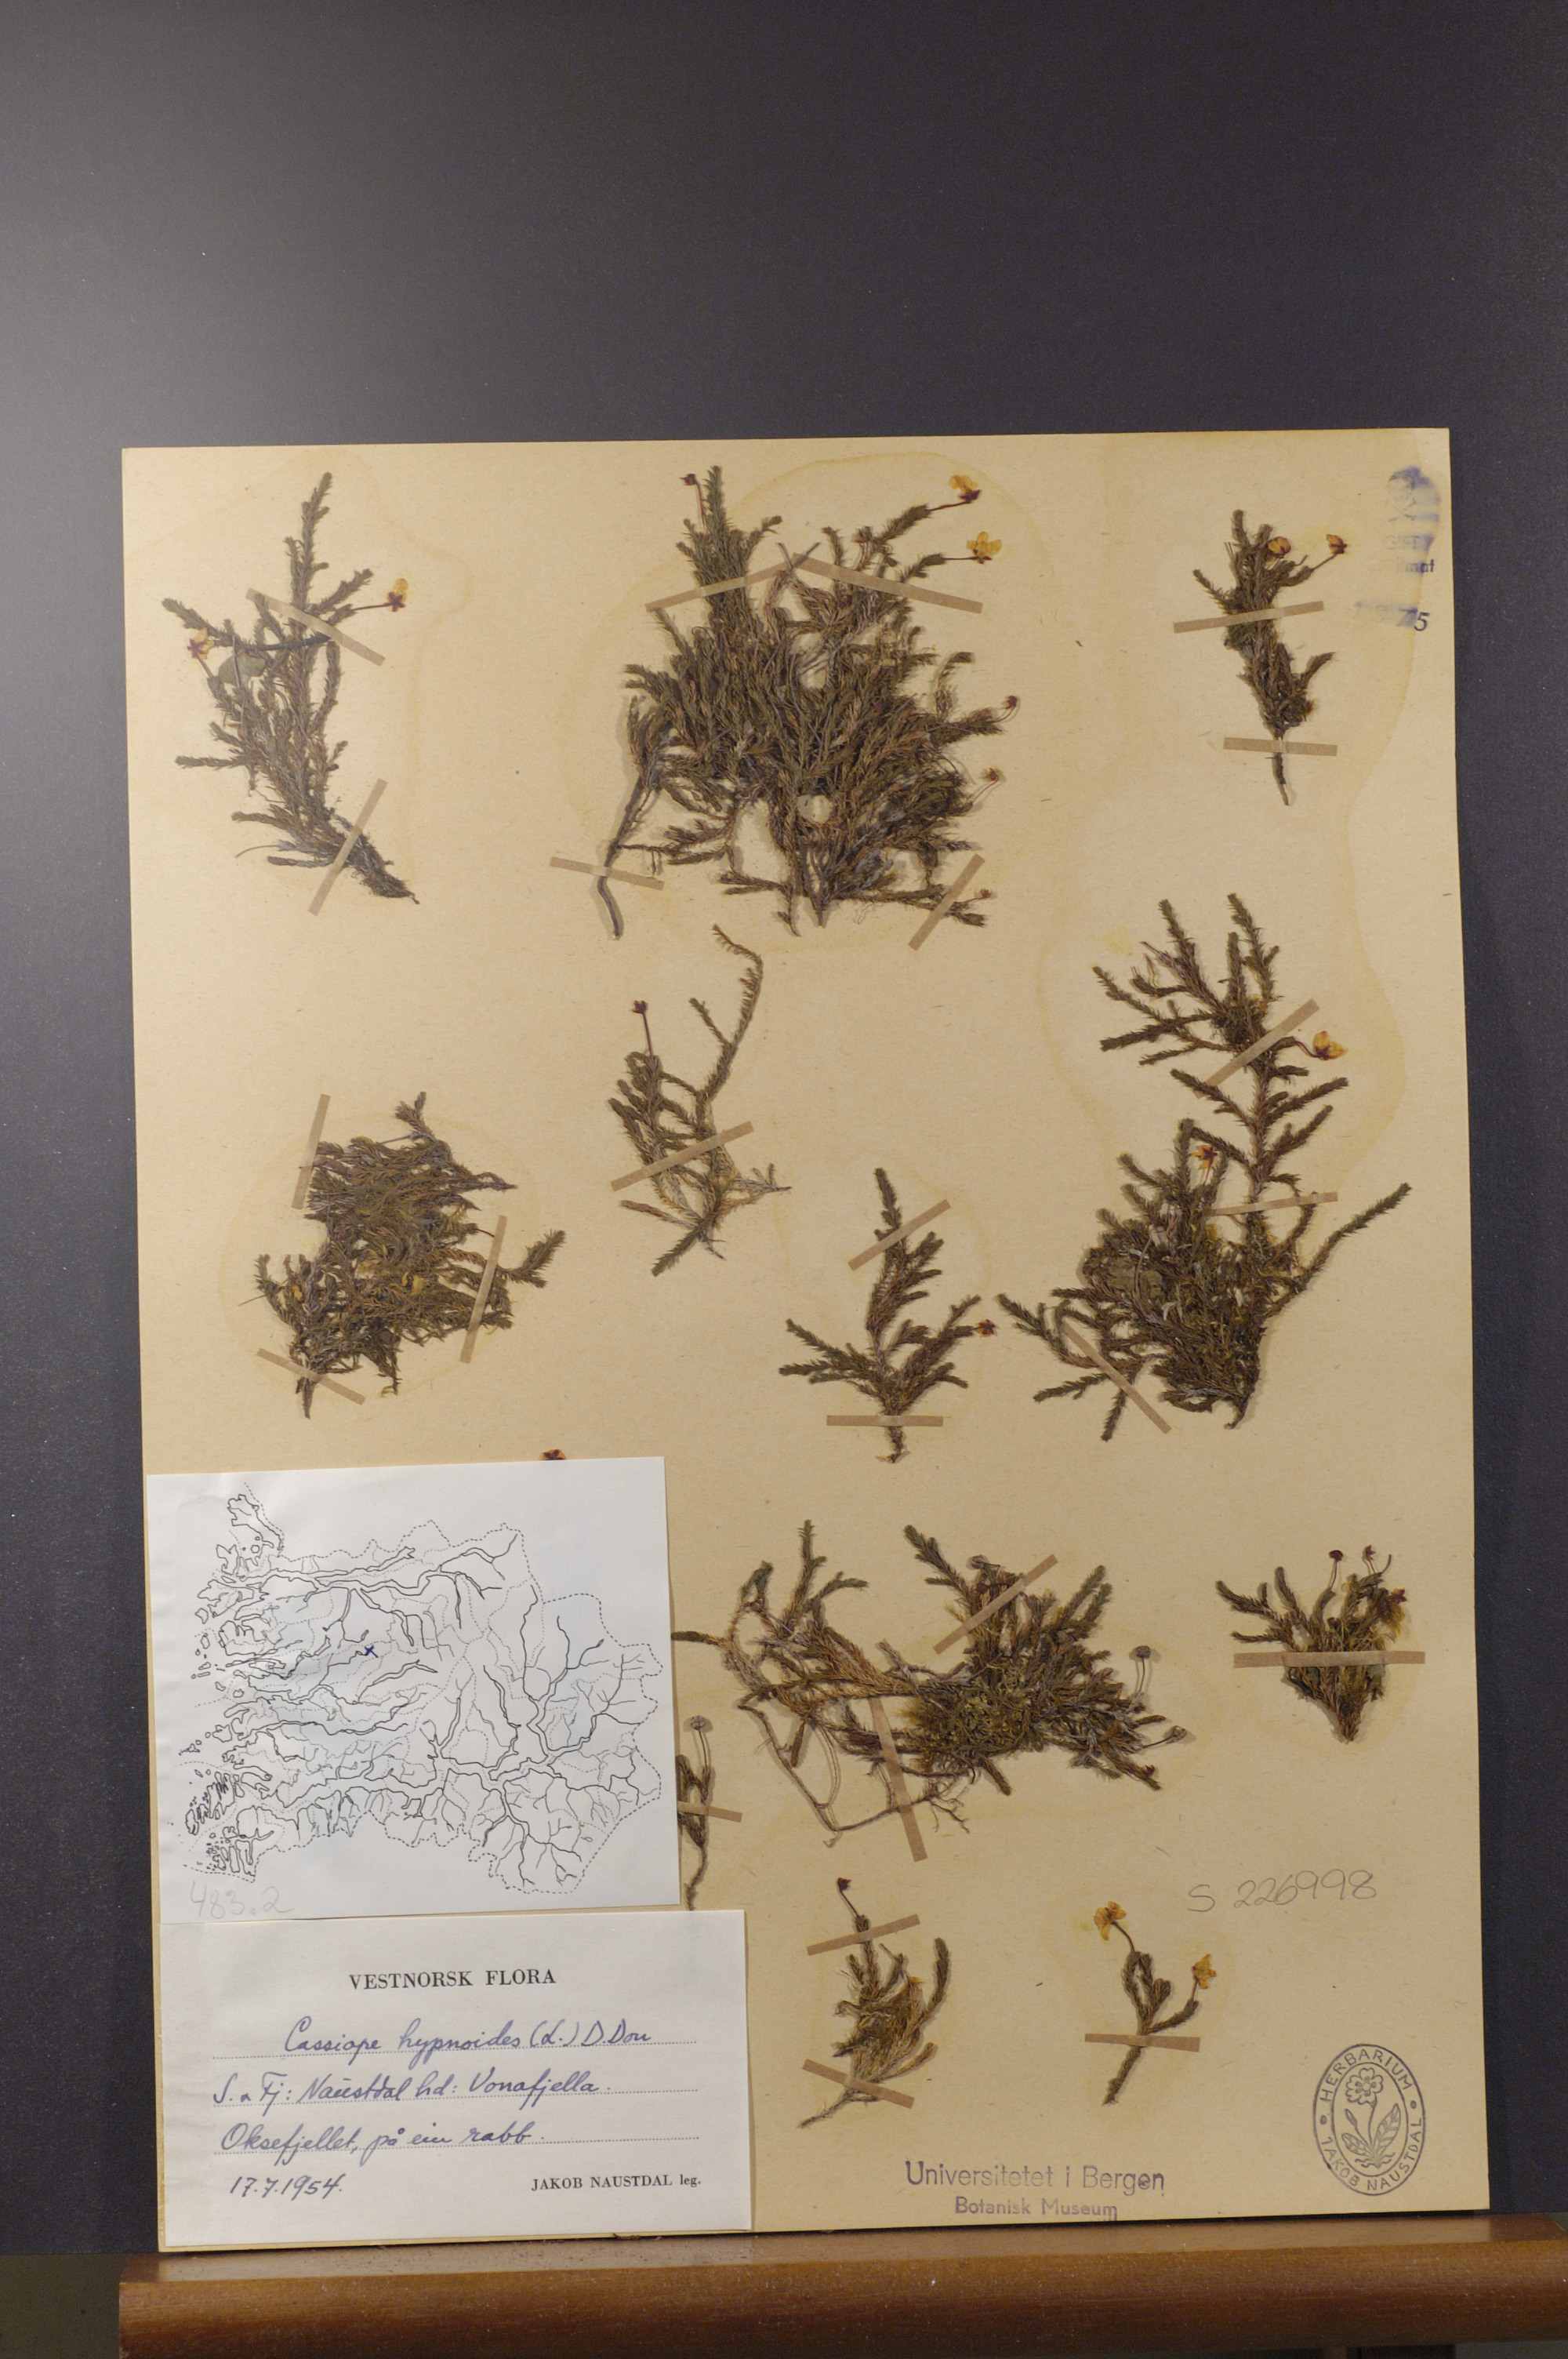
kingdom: Plantae
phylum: Tracheophyta
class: Magnoliopsida
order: Ericales
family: Ericaceae
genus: Harrimanella
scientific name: Harrimanella hypnoides
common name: Moss bell heather
